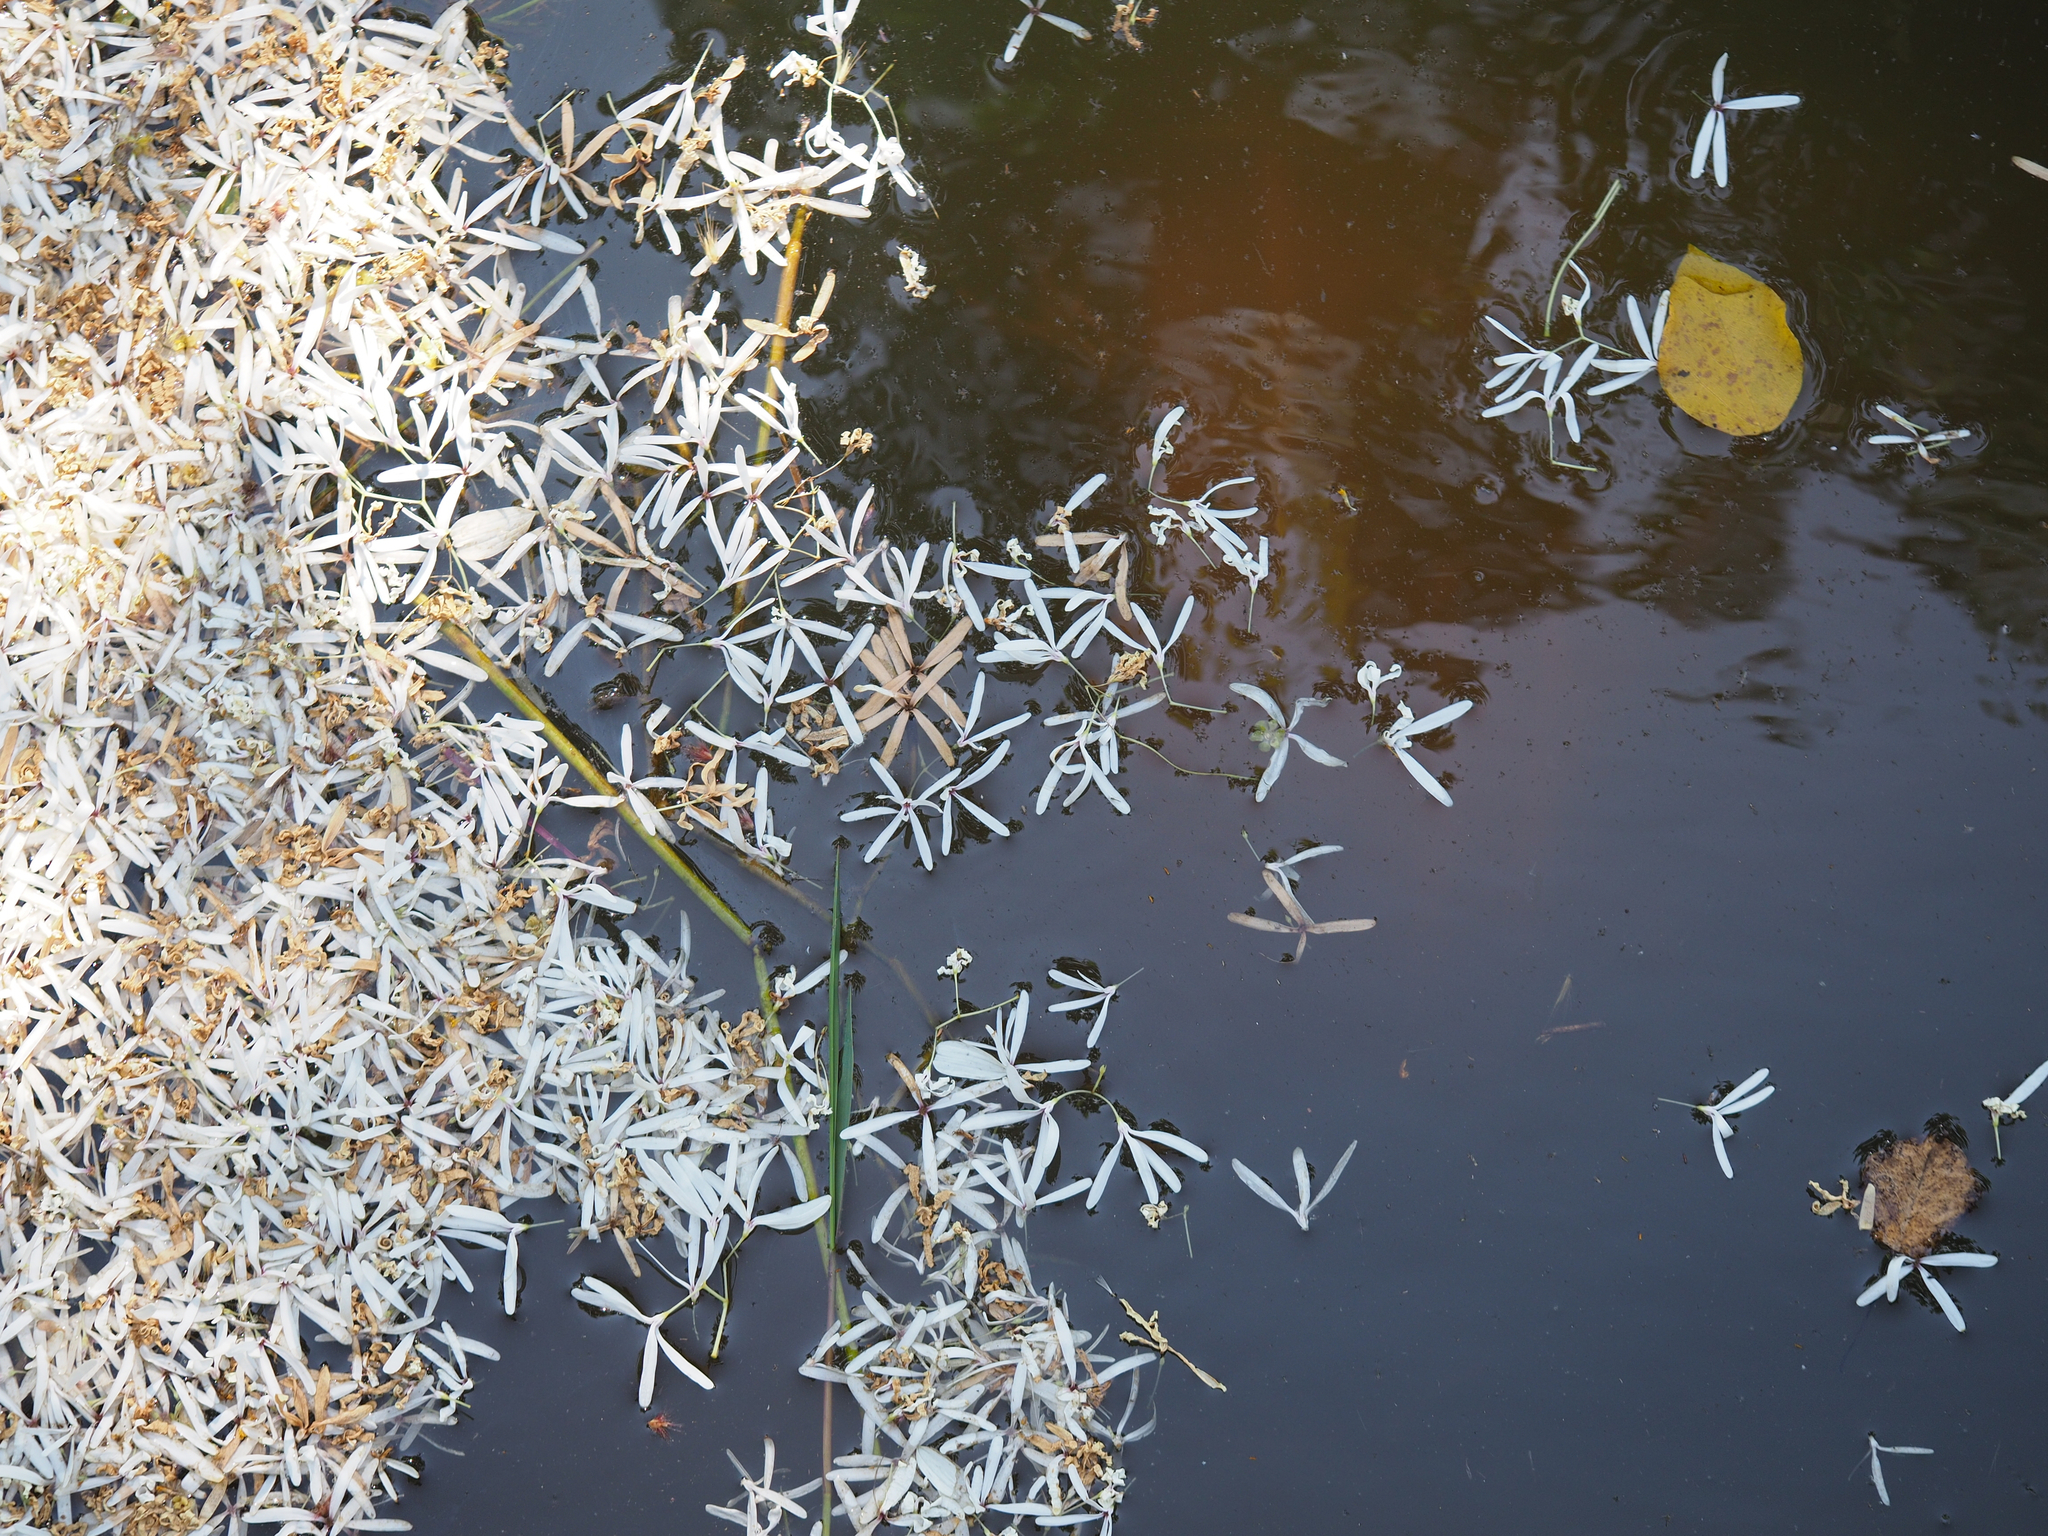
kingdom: Plantae
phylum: Tracheophyta
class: Magnoliopsida
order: Lamiales
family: Oleaceae
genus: Chionanthus
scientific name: Chionanthus retusus
